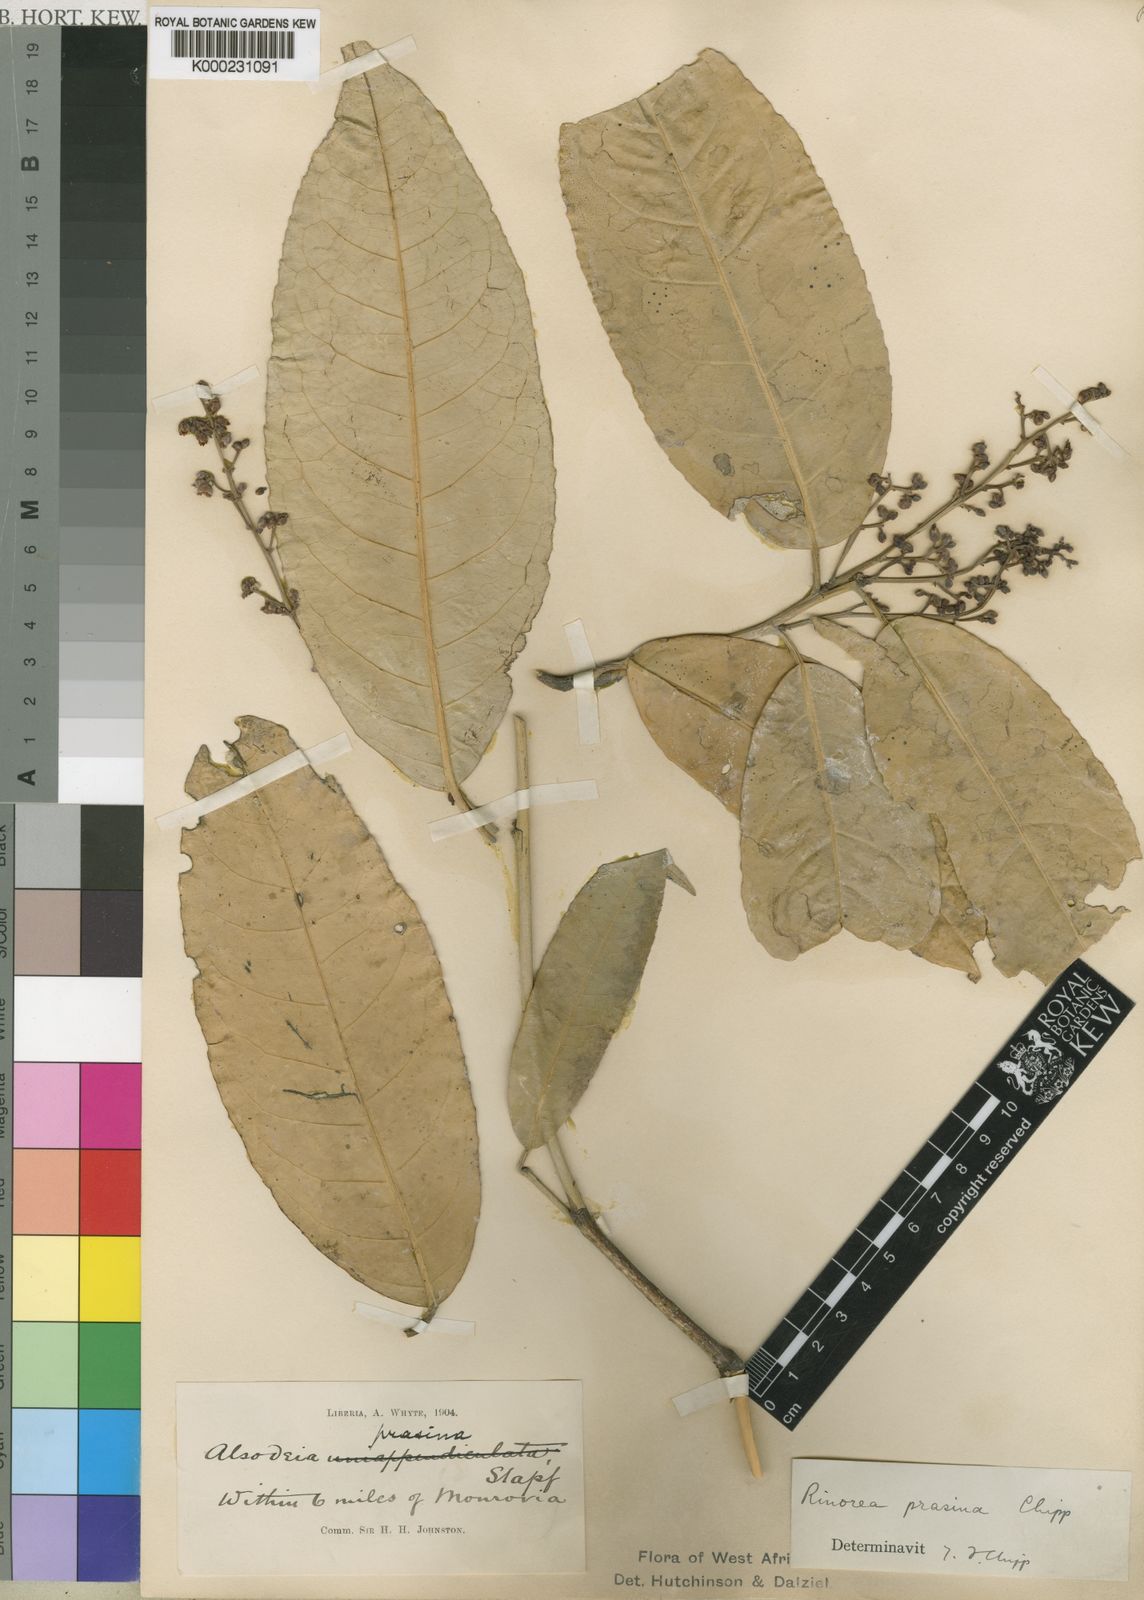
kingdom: Plantae
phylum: Tracheophyta
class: Magnoliopsida
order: Malpighiales
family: Violaceae
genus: Rinorea
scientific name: Rinorea prasina
